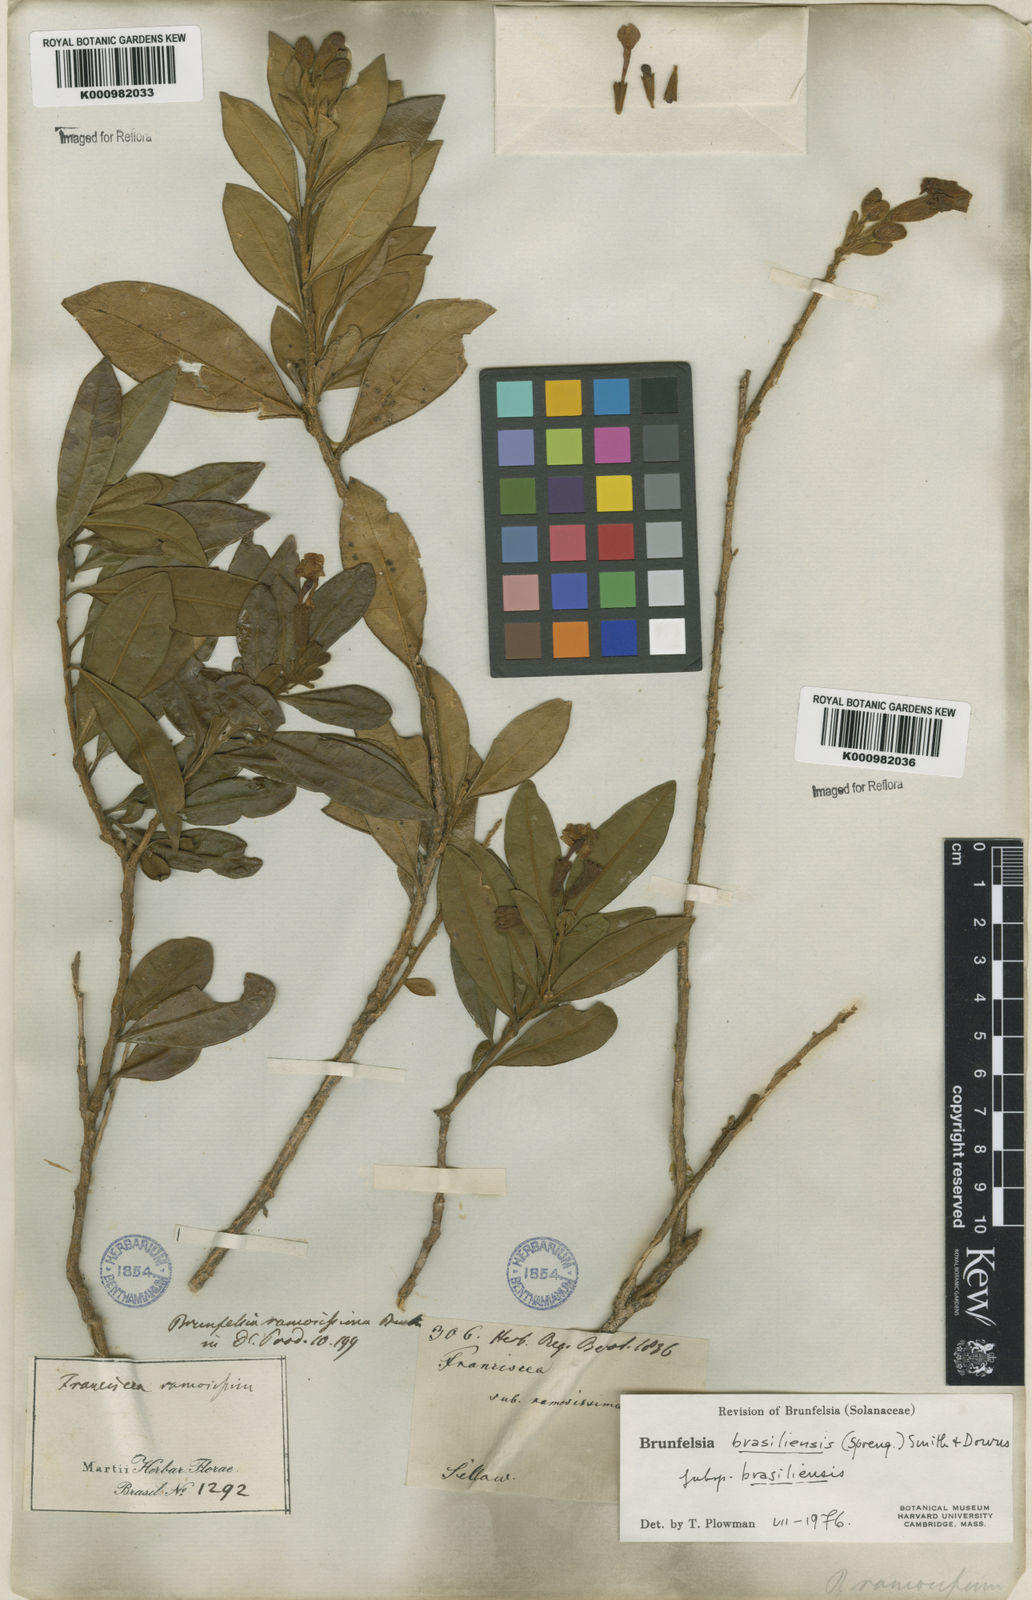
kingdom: Plantae
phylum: Tracheophyta
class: Magnoliopsida
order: Solanales
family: Solanaceae
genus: Brunfelsia
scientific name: Brunfelsia brasiliensis
